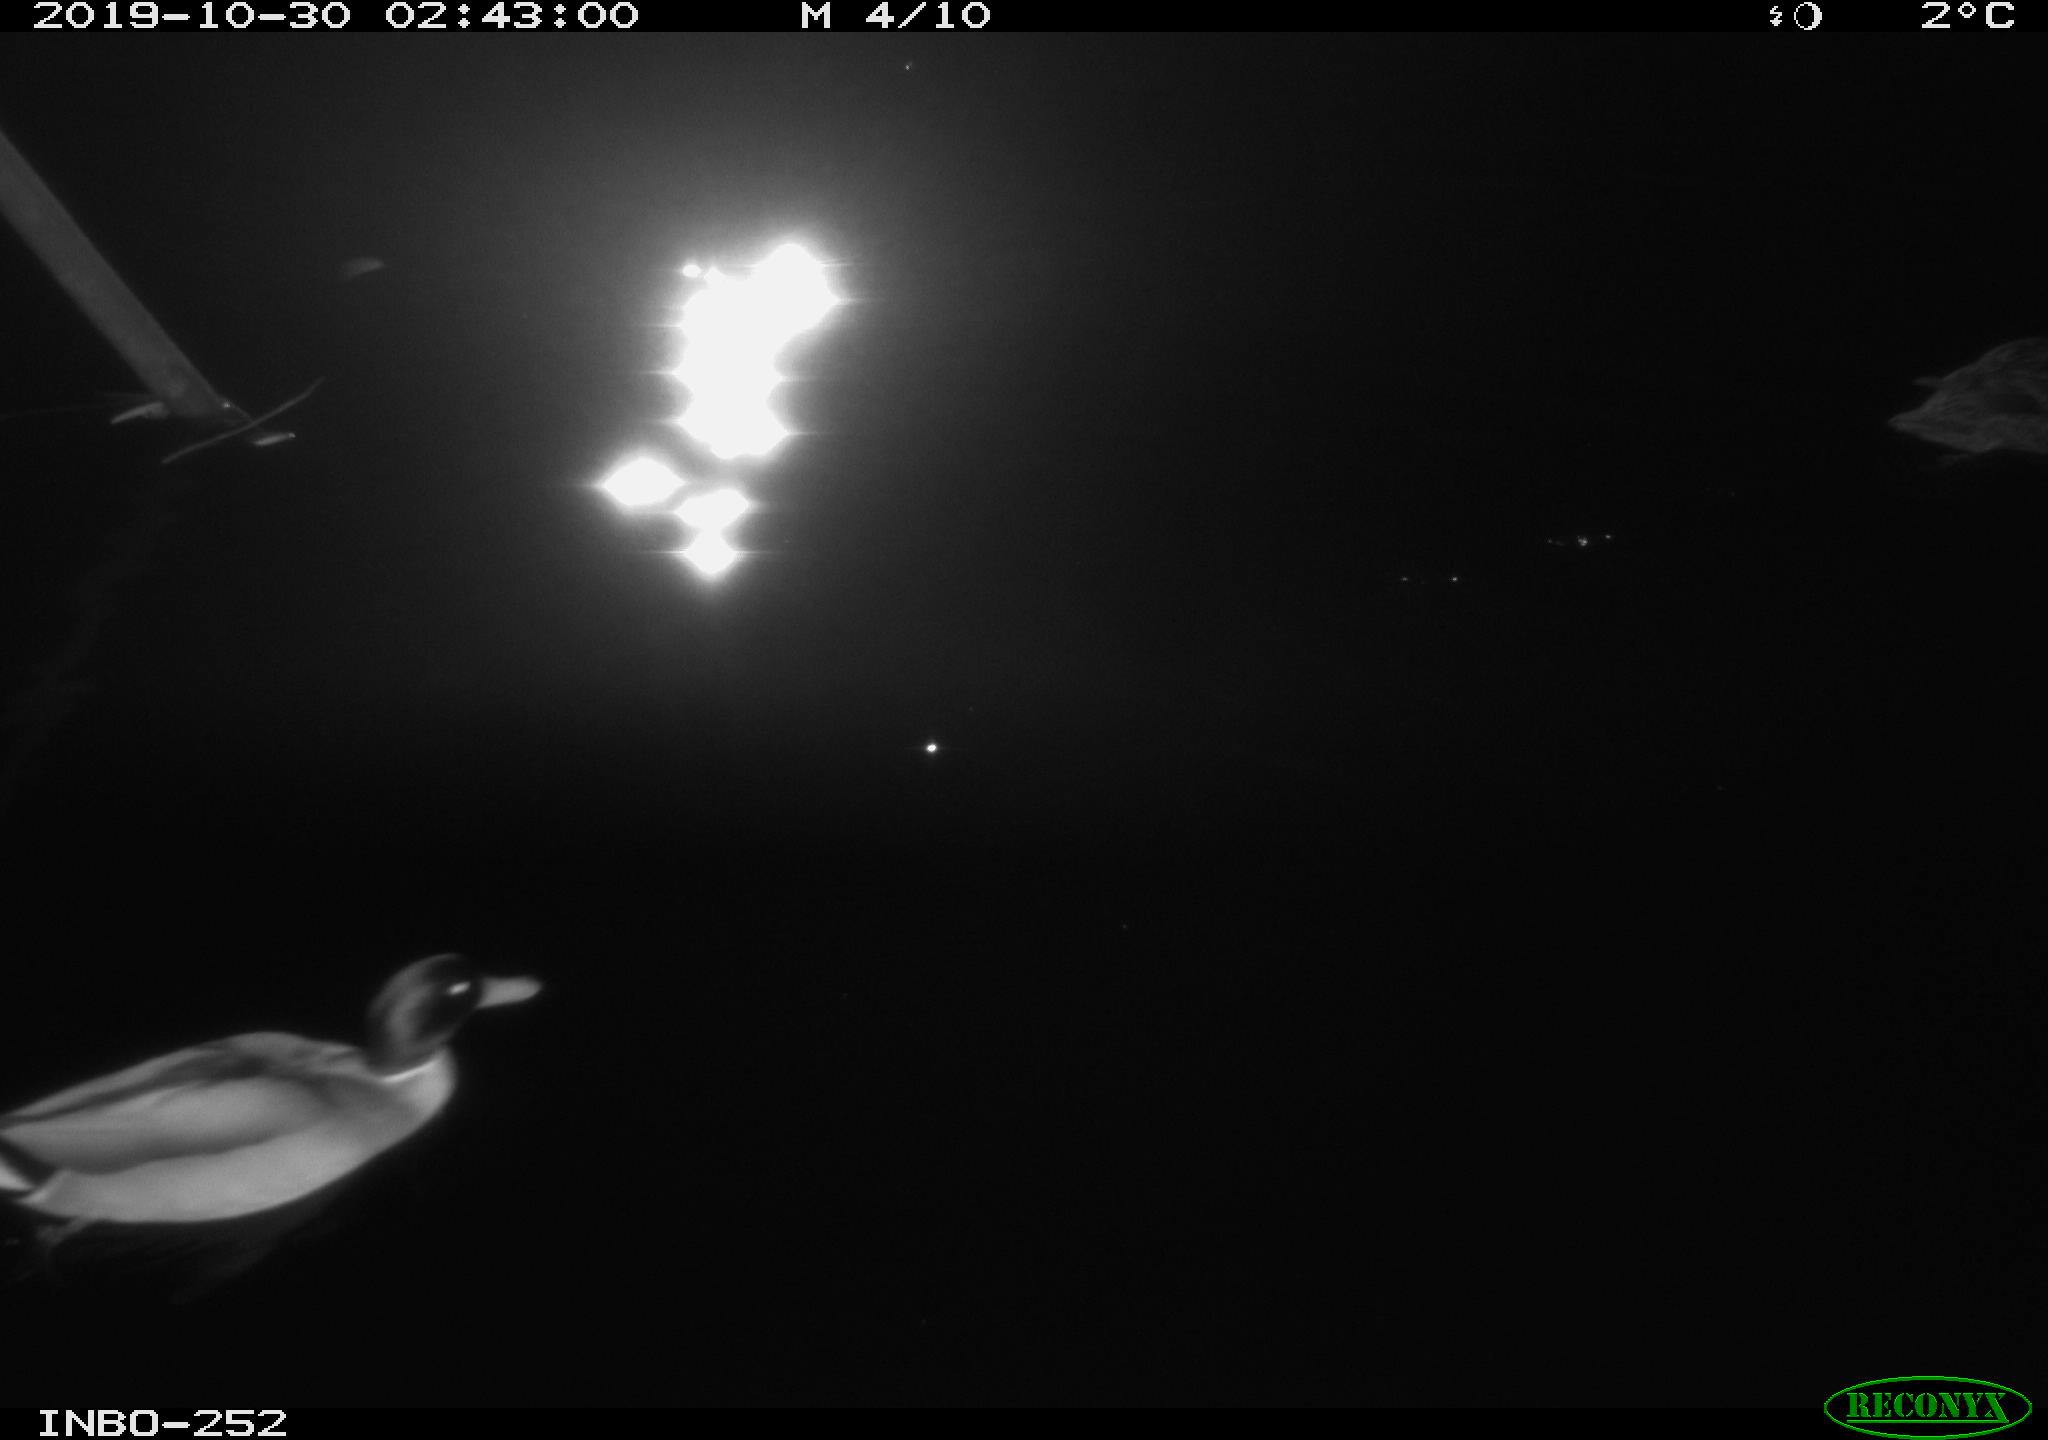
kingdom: Animalia
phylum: Chordata
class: Aves
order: Anseriformes
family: Anatidae
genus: Anas
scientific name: Anas platyrhynchos
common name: Mallard
